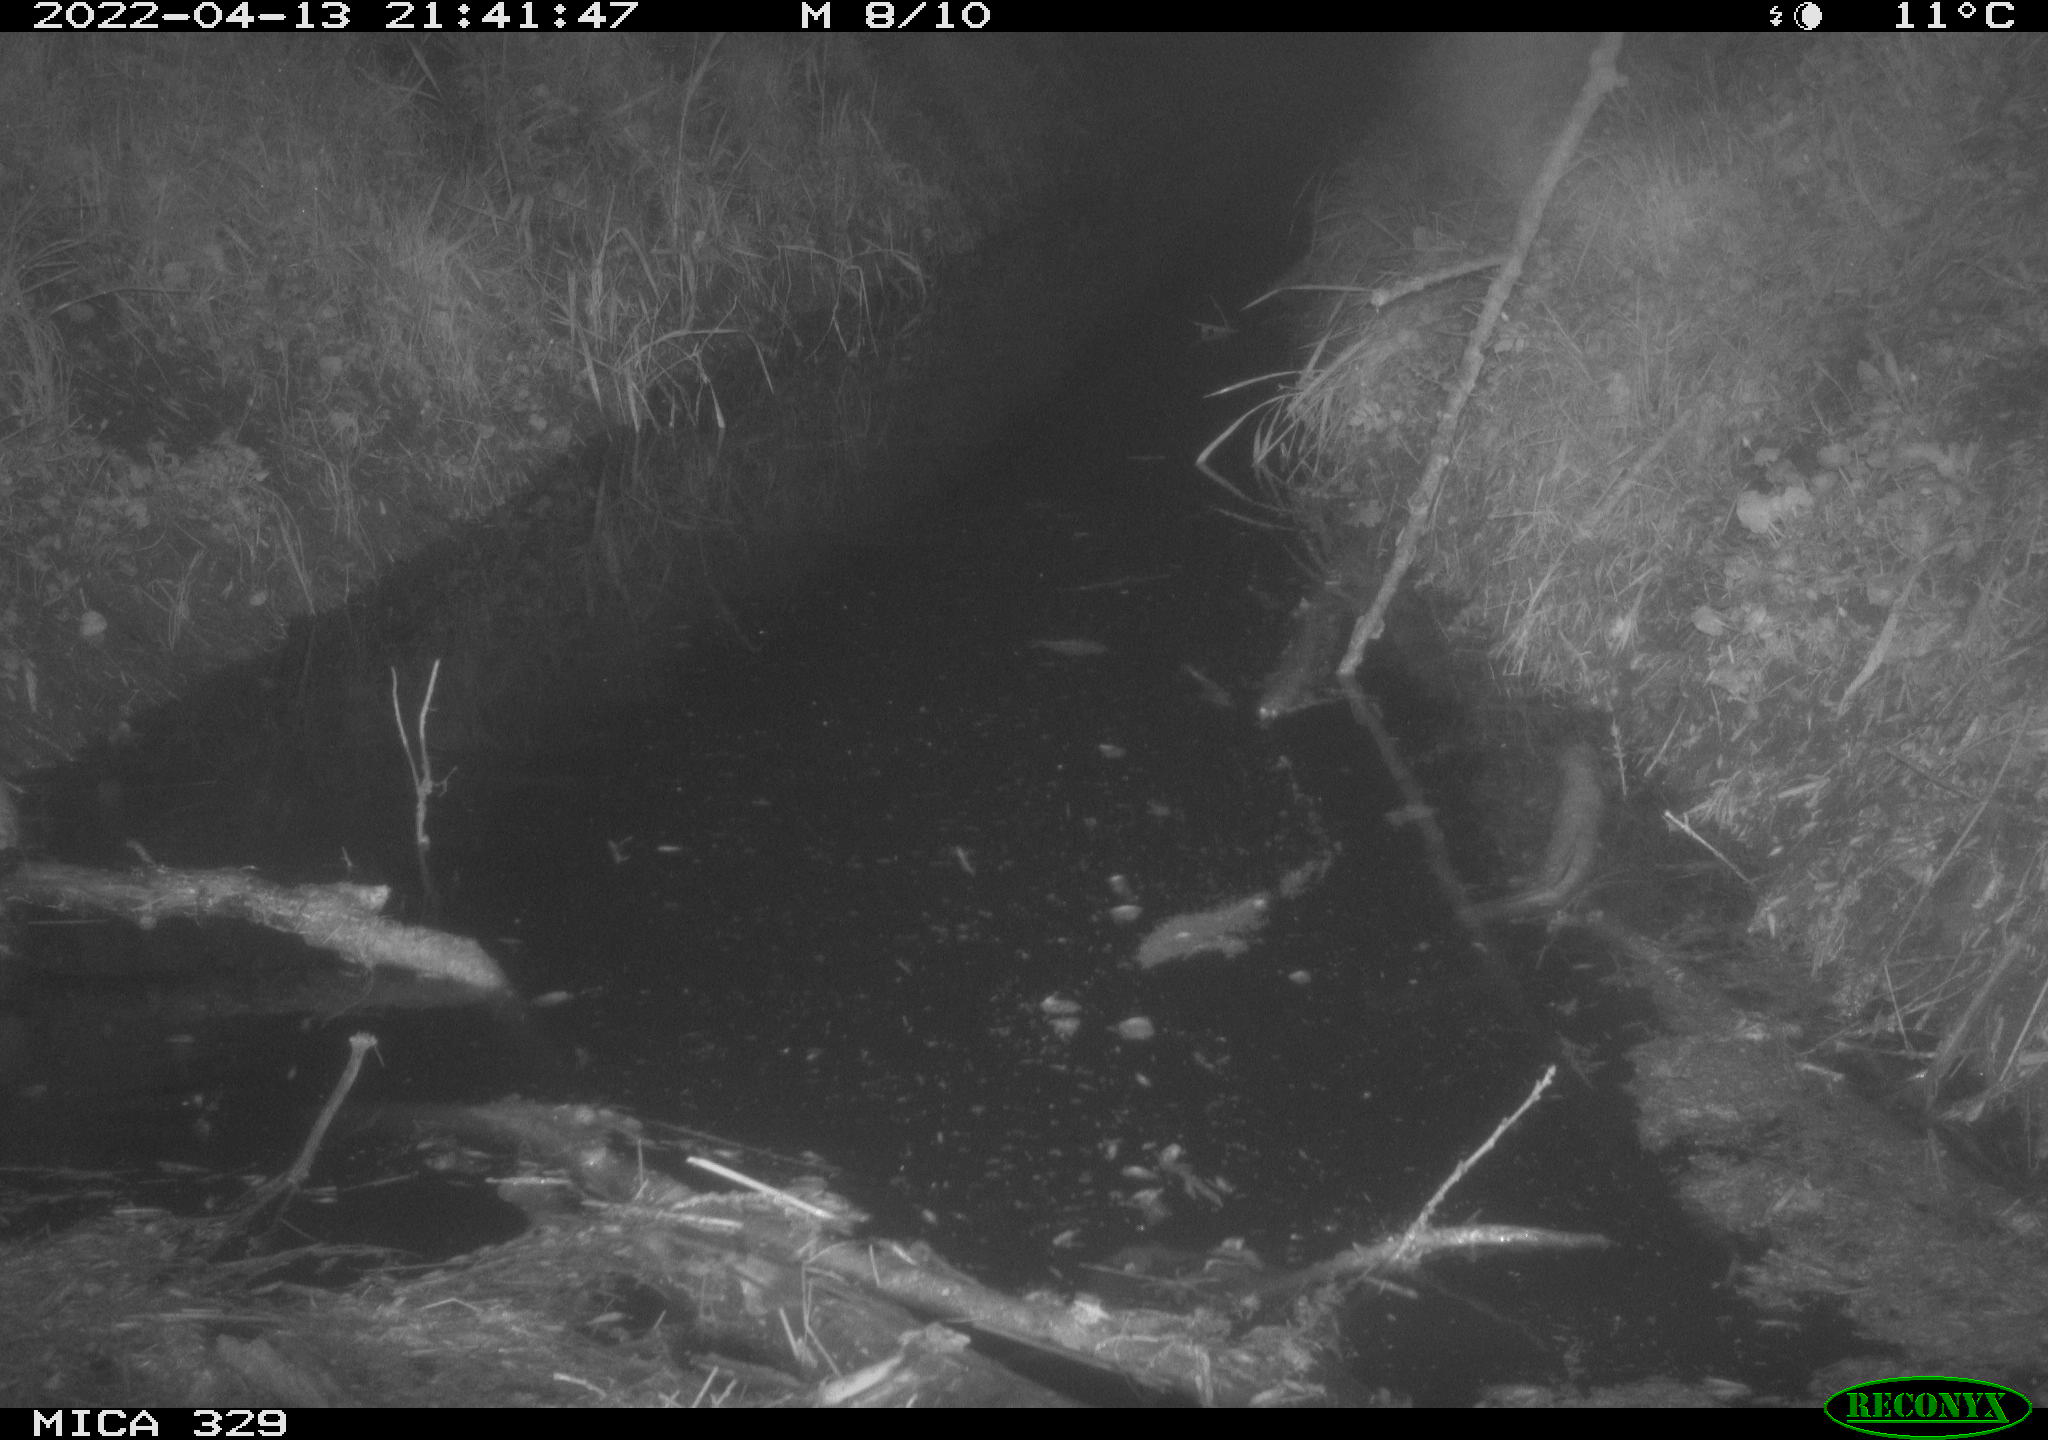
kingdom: Animalia
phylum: Chordata
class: Mammalia
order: Rodentia
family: Muridae
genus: Rattus
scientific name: Rattus norvegicus
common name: Brown rat
